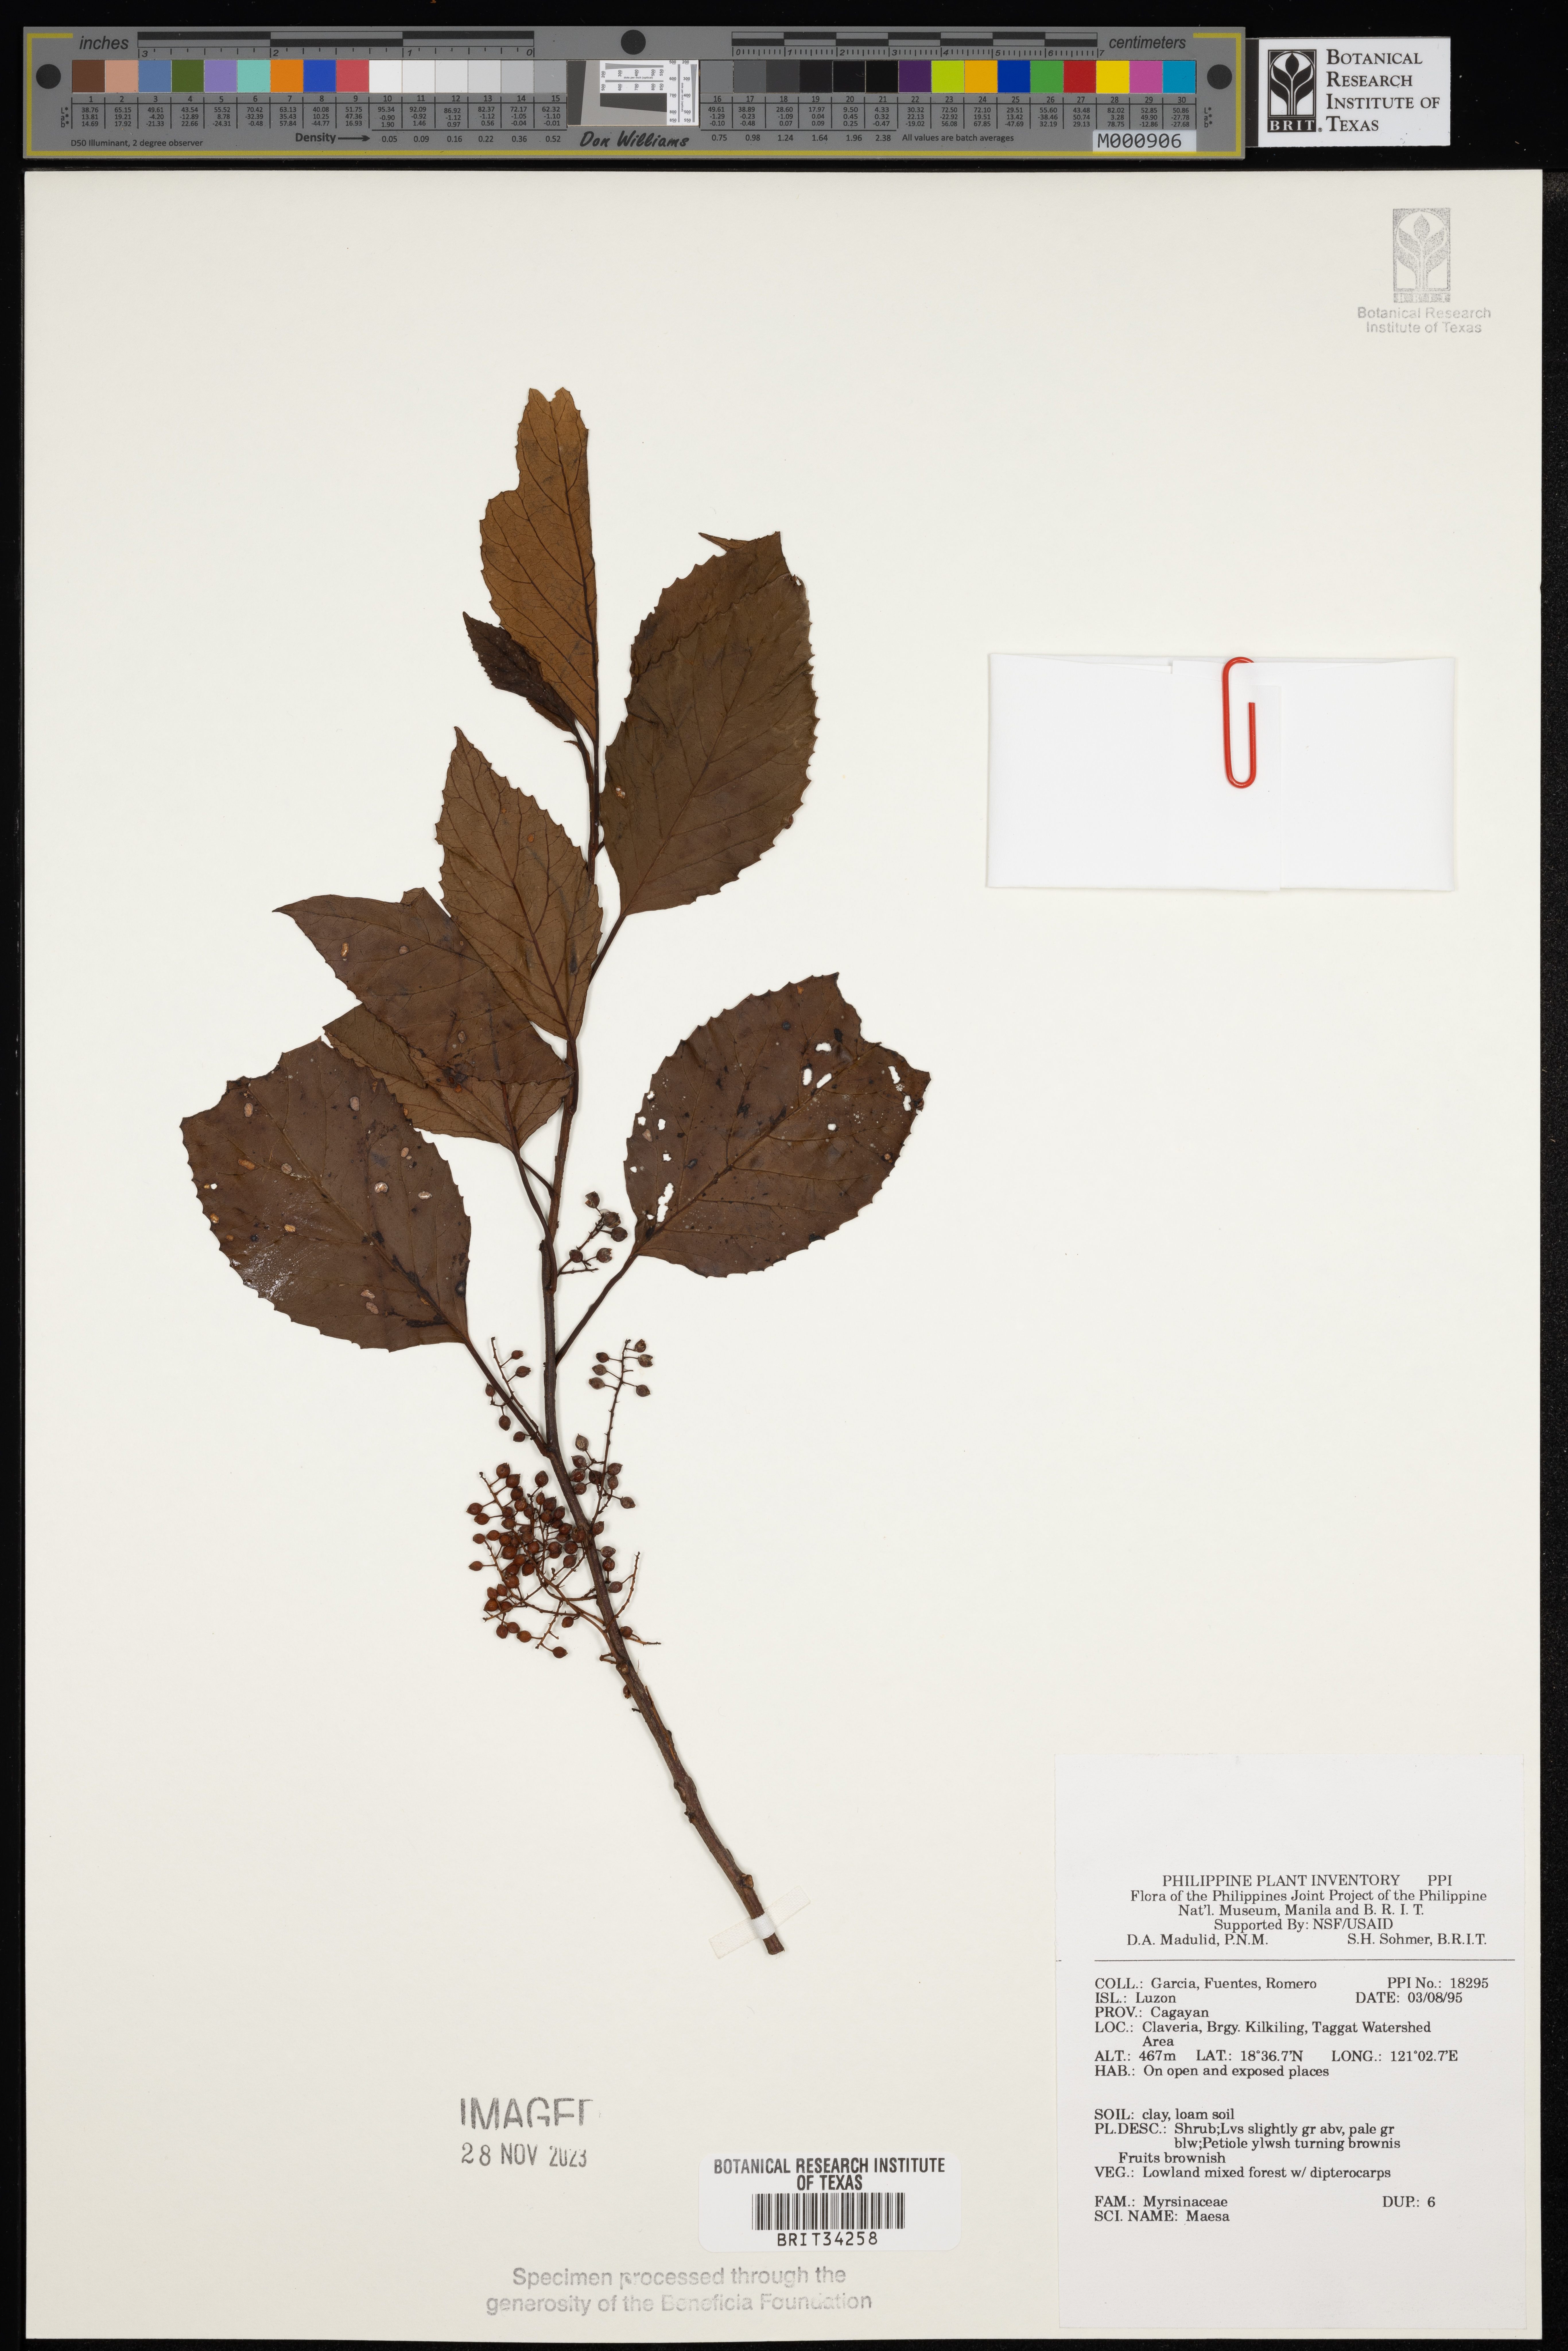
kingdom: Plantae
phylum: Tracheophyta
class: Magnoliopsida
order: Ericales
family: Primulaceae
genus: Maesa
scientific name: Maesa
